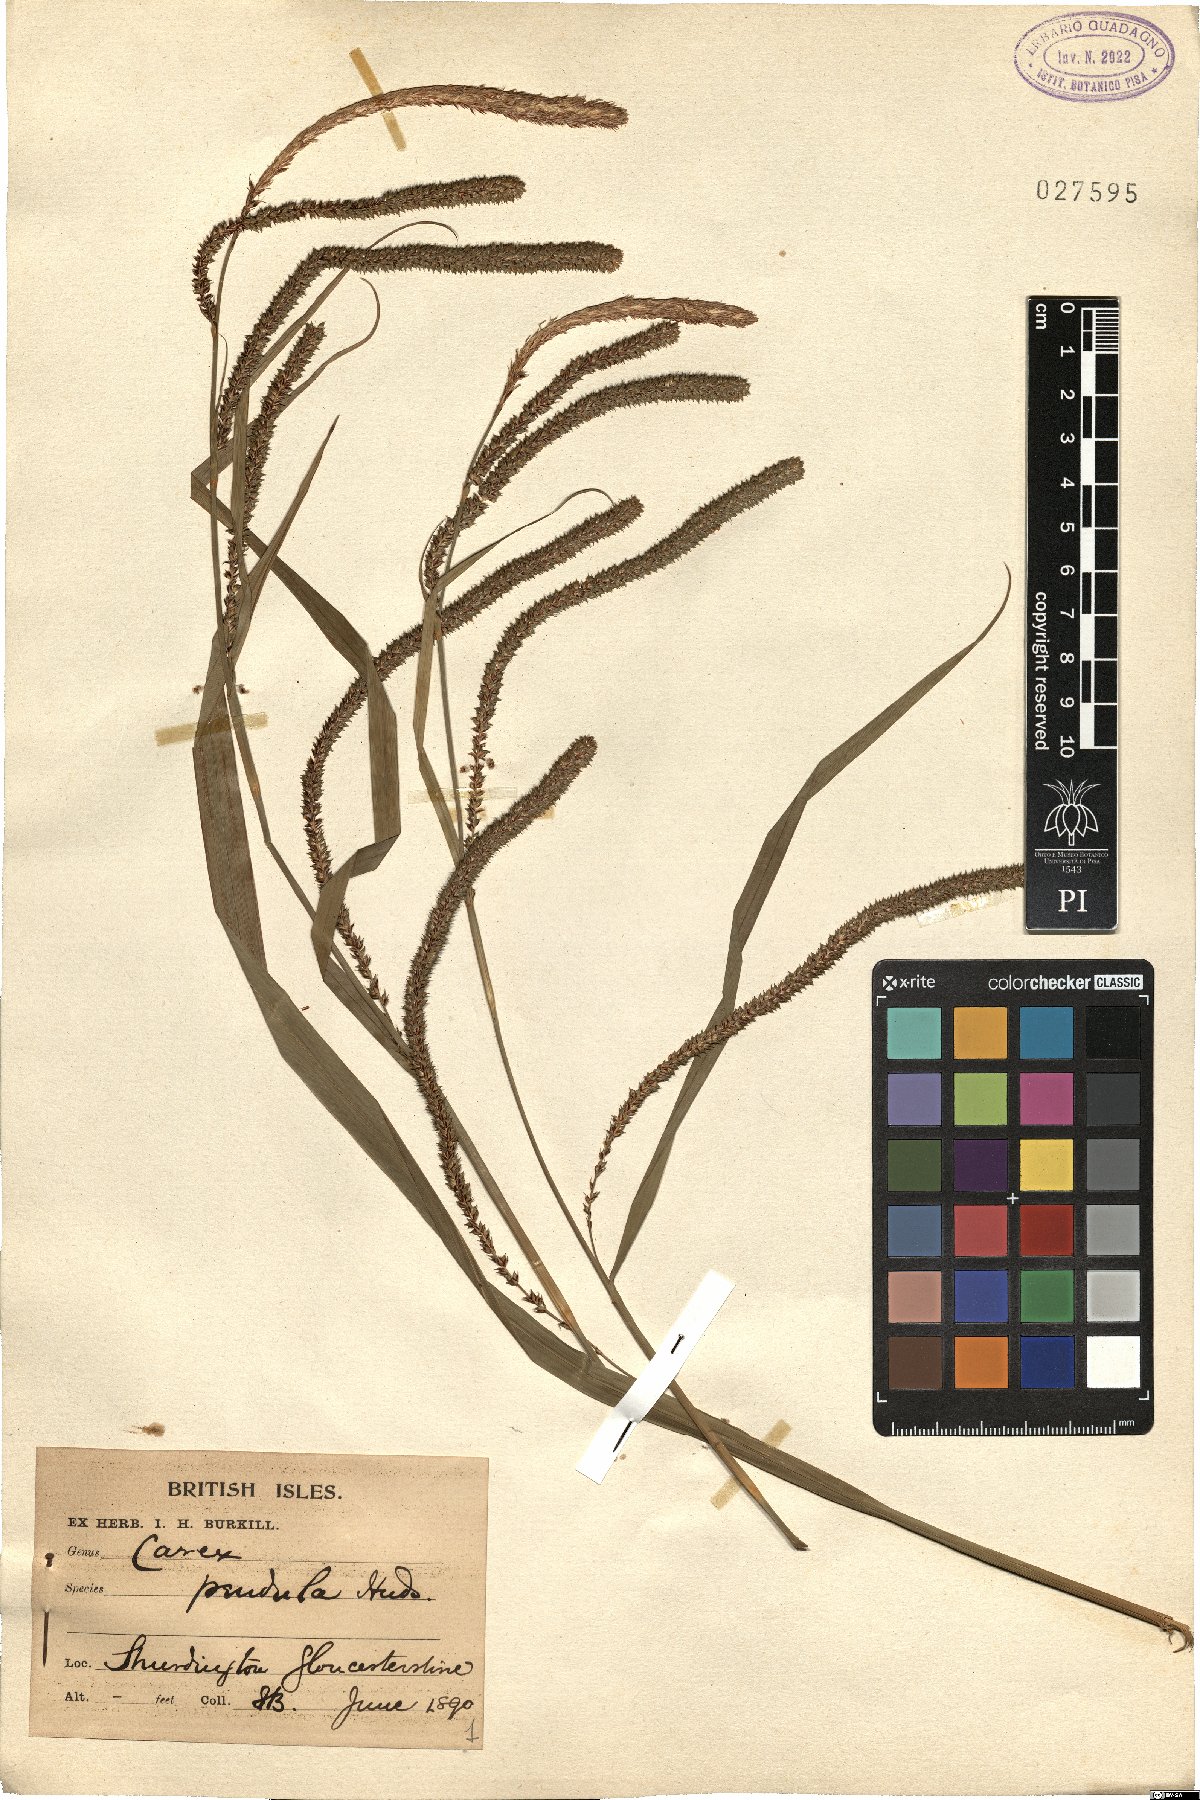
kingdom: Plantae
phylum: Tracheophyta
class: Liliopsida
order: Poales
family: Cyperaceae
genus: Carex
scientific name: Carex pendula
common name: Pendulous sedge
